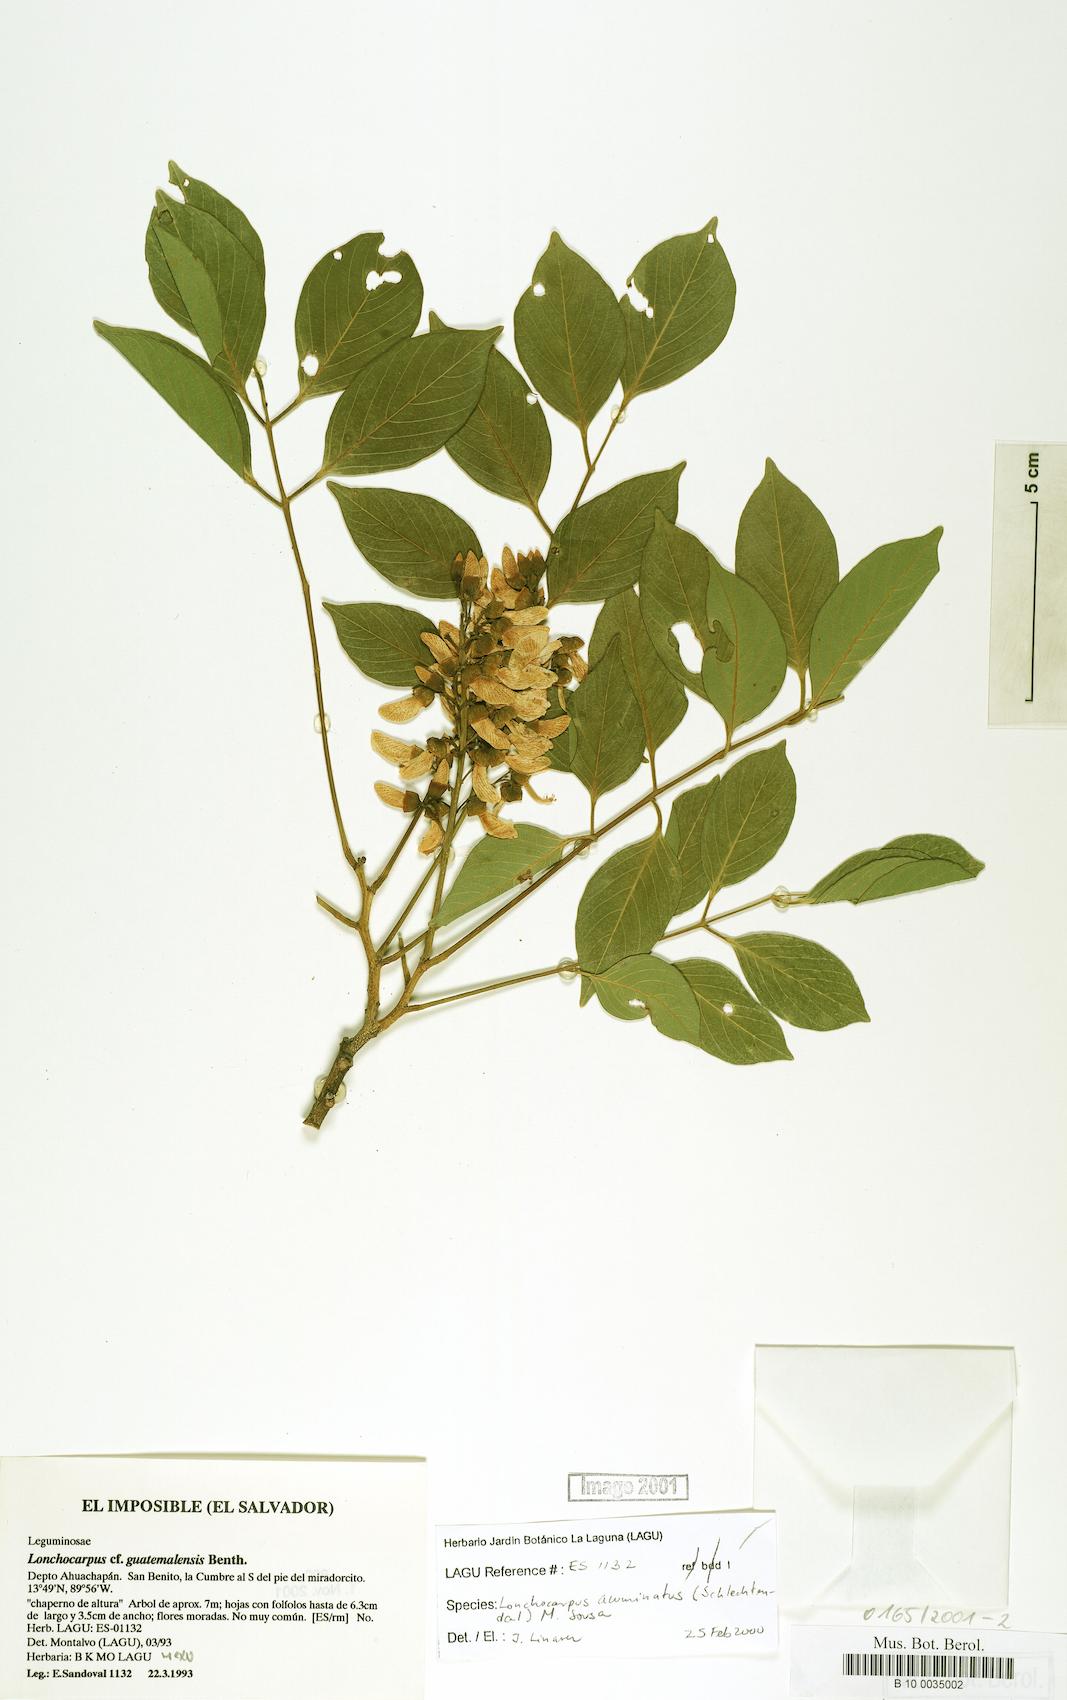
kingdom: Plantae
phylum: Tracheophyta
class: Magnoliopsida
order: Fabales
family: Fabaceae
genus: Lonchocarpus
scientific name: Lonchocarpus acuminatus
